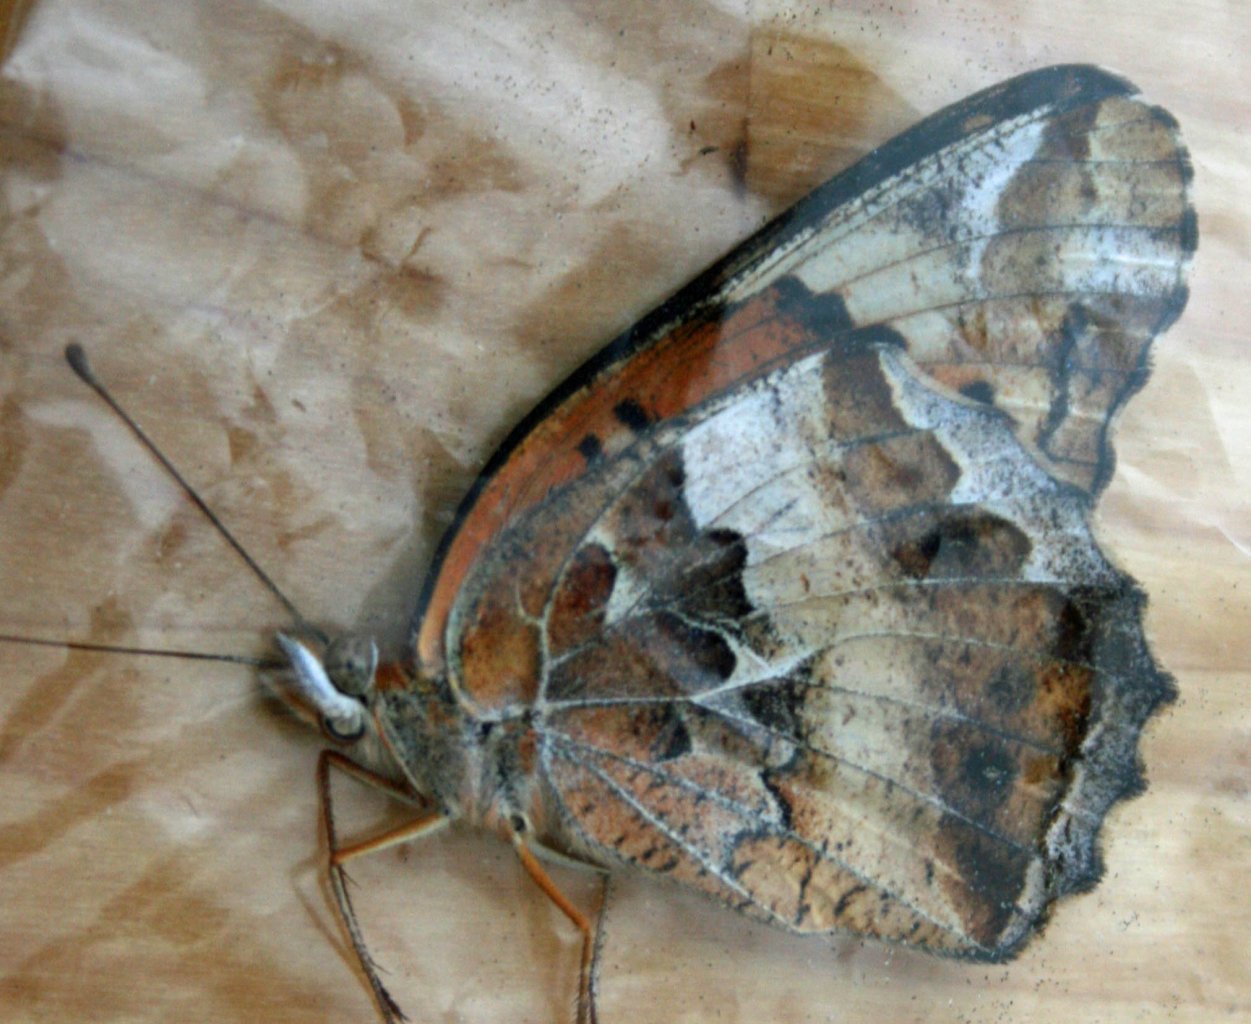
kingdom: Animalia
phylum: Arthropoda
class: Insecta
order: Lepidoptera
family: Nymphalidae
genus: Euptoieta
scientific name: Euptoieta claudia
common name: Variegated Fritillary
